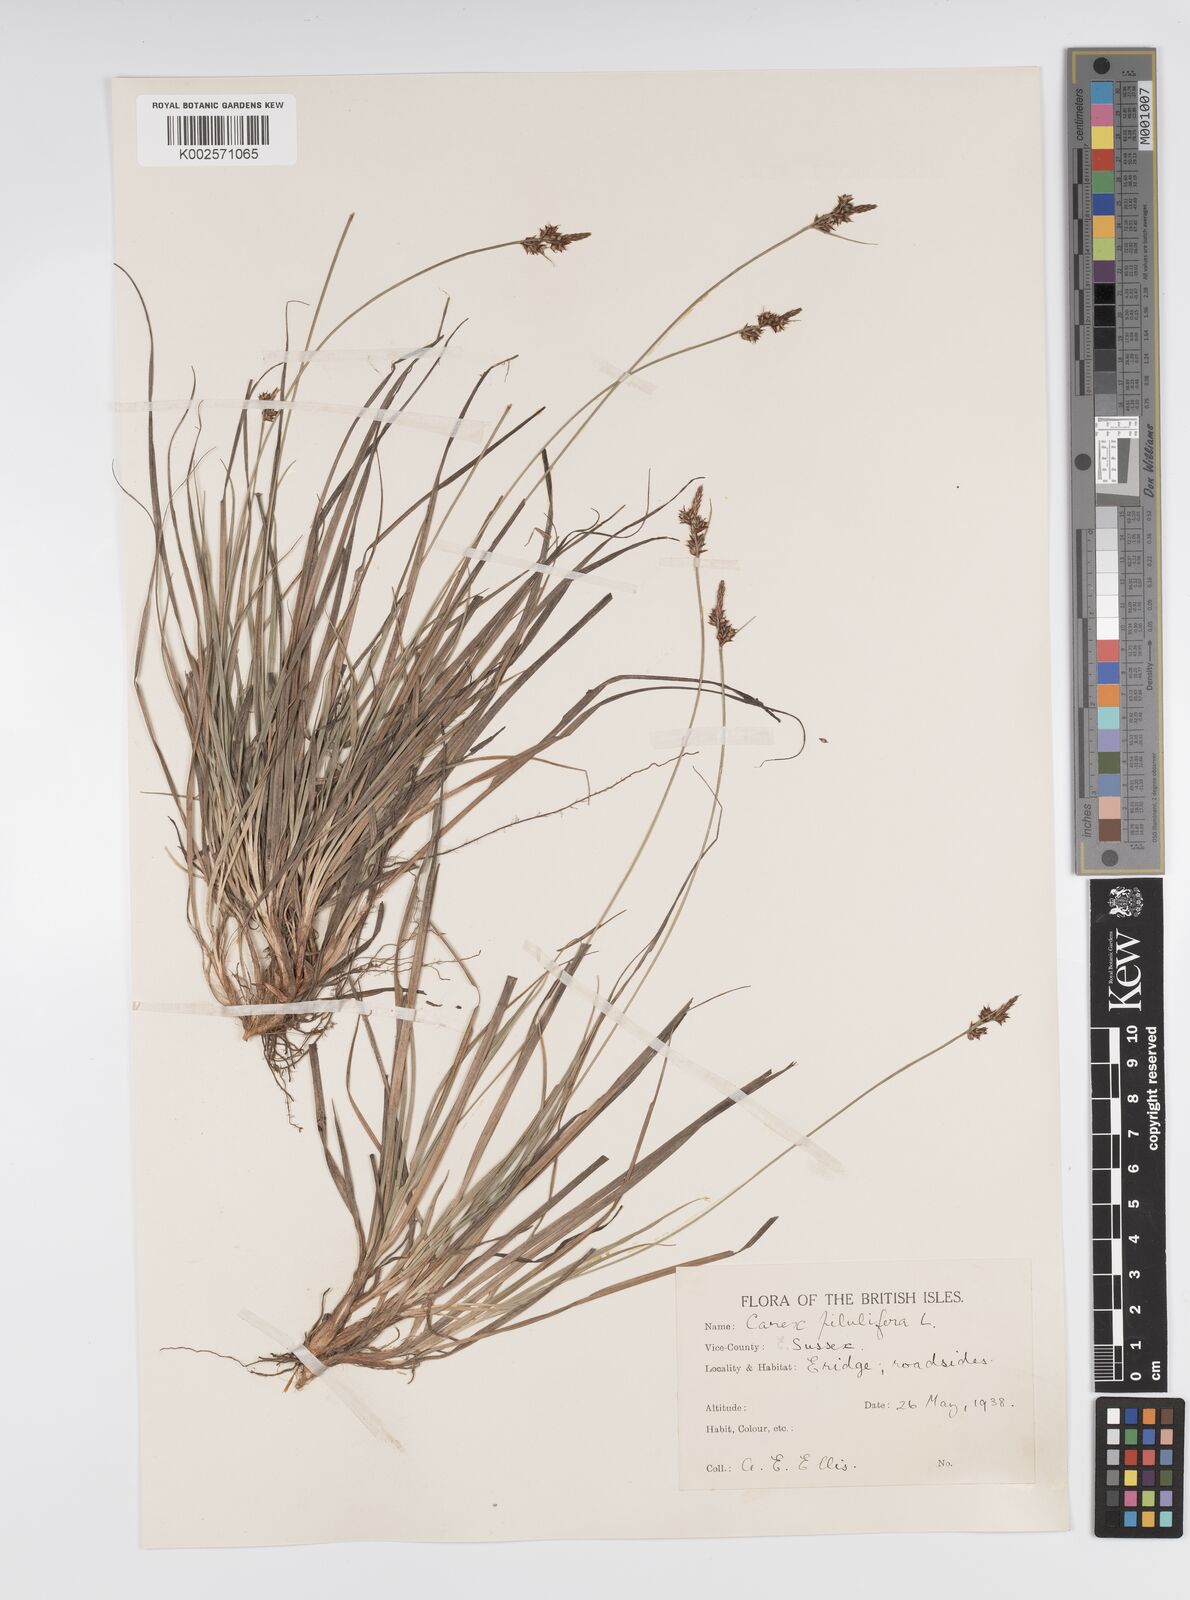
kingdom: Plantae
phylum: Tracheophyta
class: Liliopsida
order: Poales
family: Cyperaceae
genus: Carex
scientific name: Carex pilulifera
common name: Pill sedge
